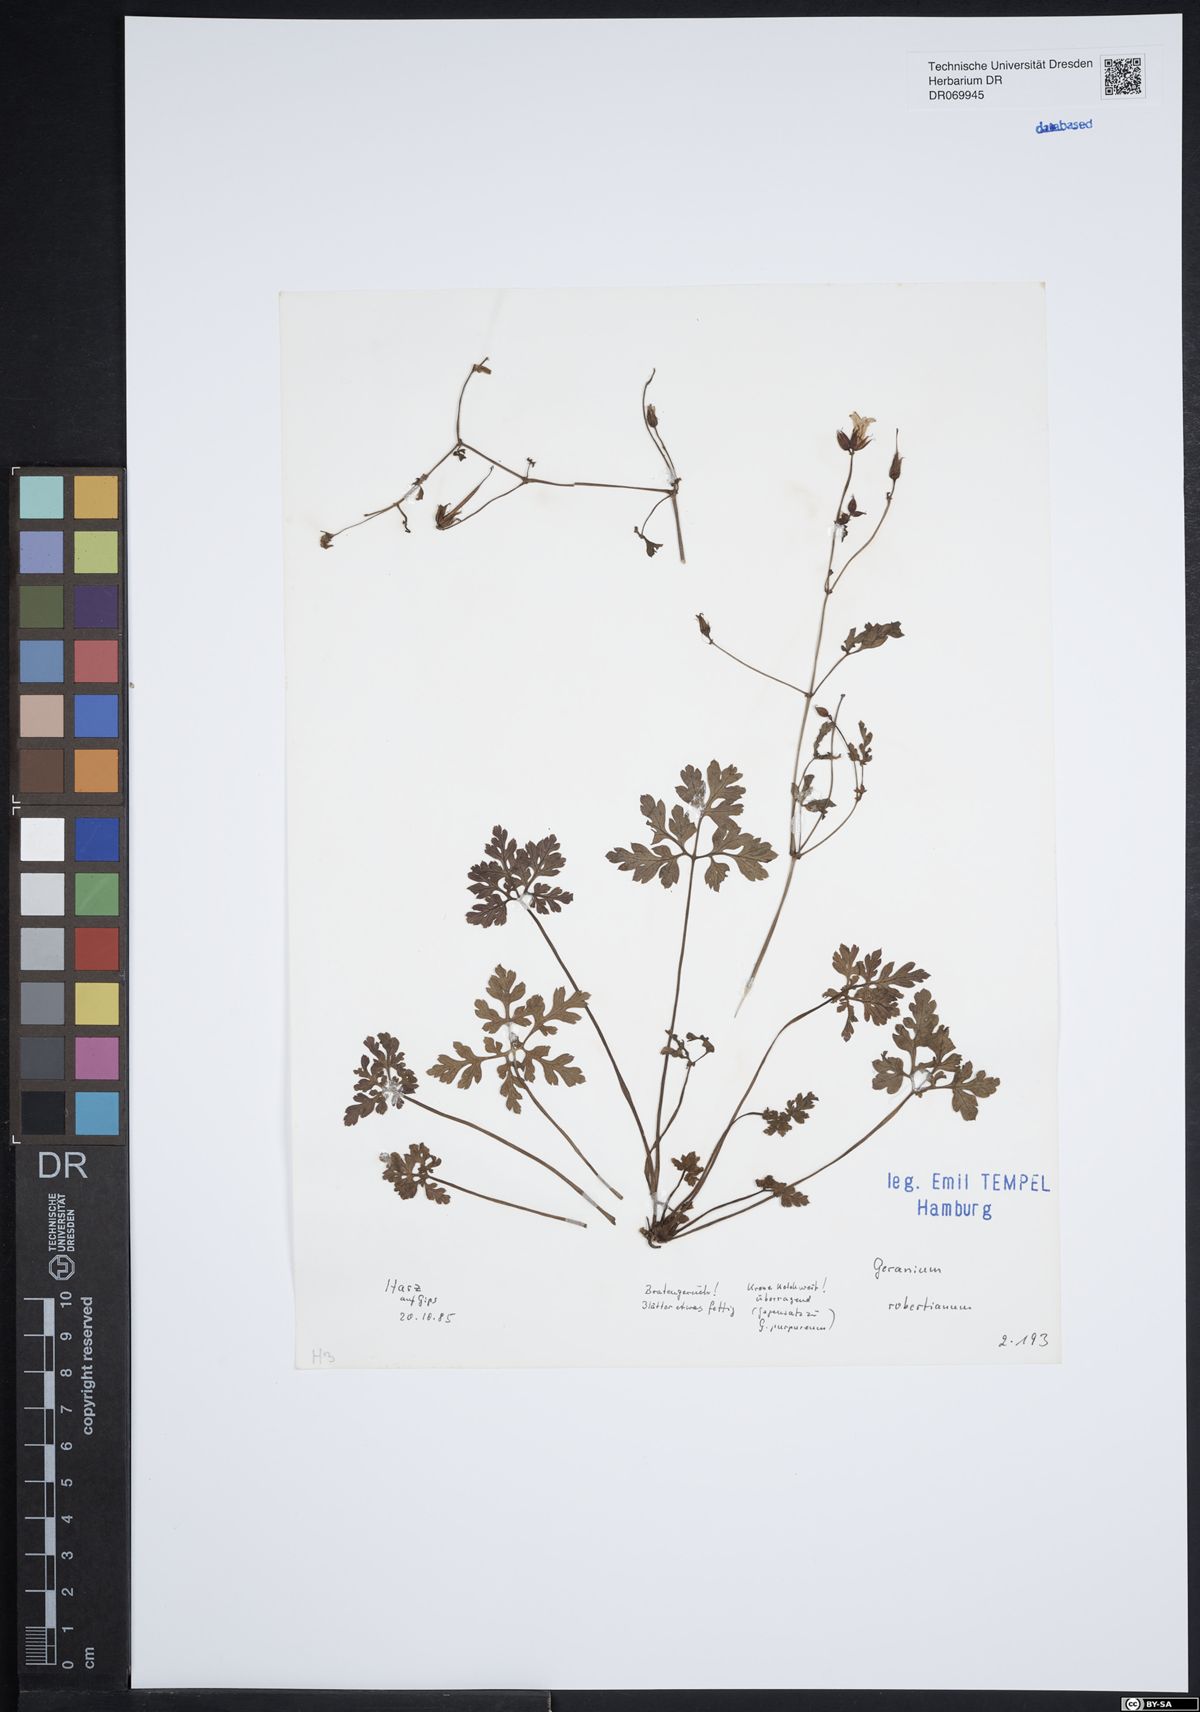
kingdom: Plantae
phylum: Tracheophyta
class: Magnoliopsida
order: Geraniales
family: Geraniaceae
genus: Geranium
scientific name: Geranium robertianum
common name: Herb-robert
